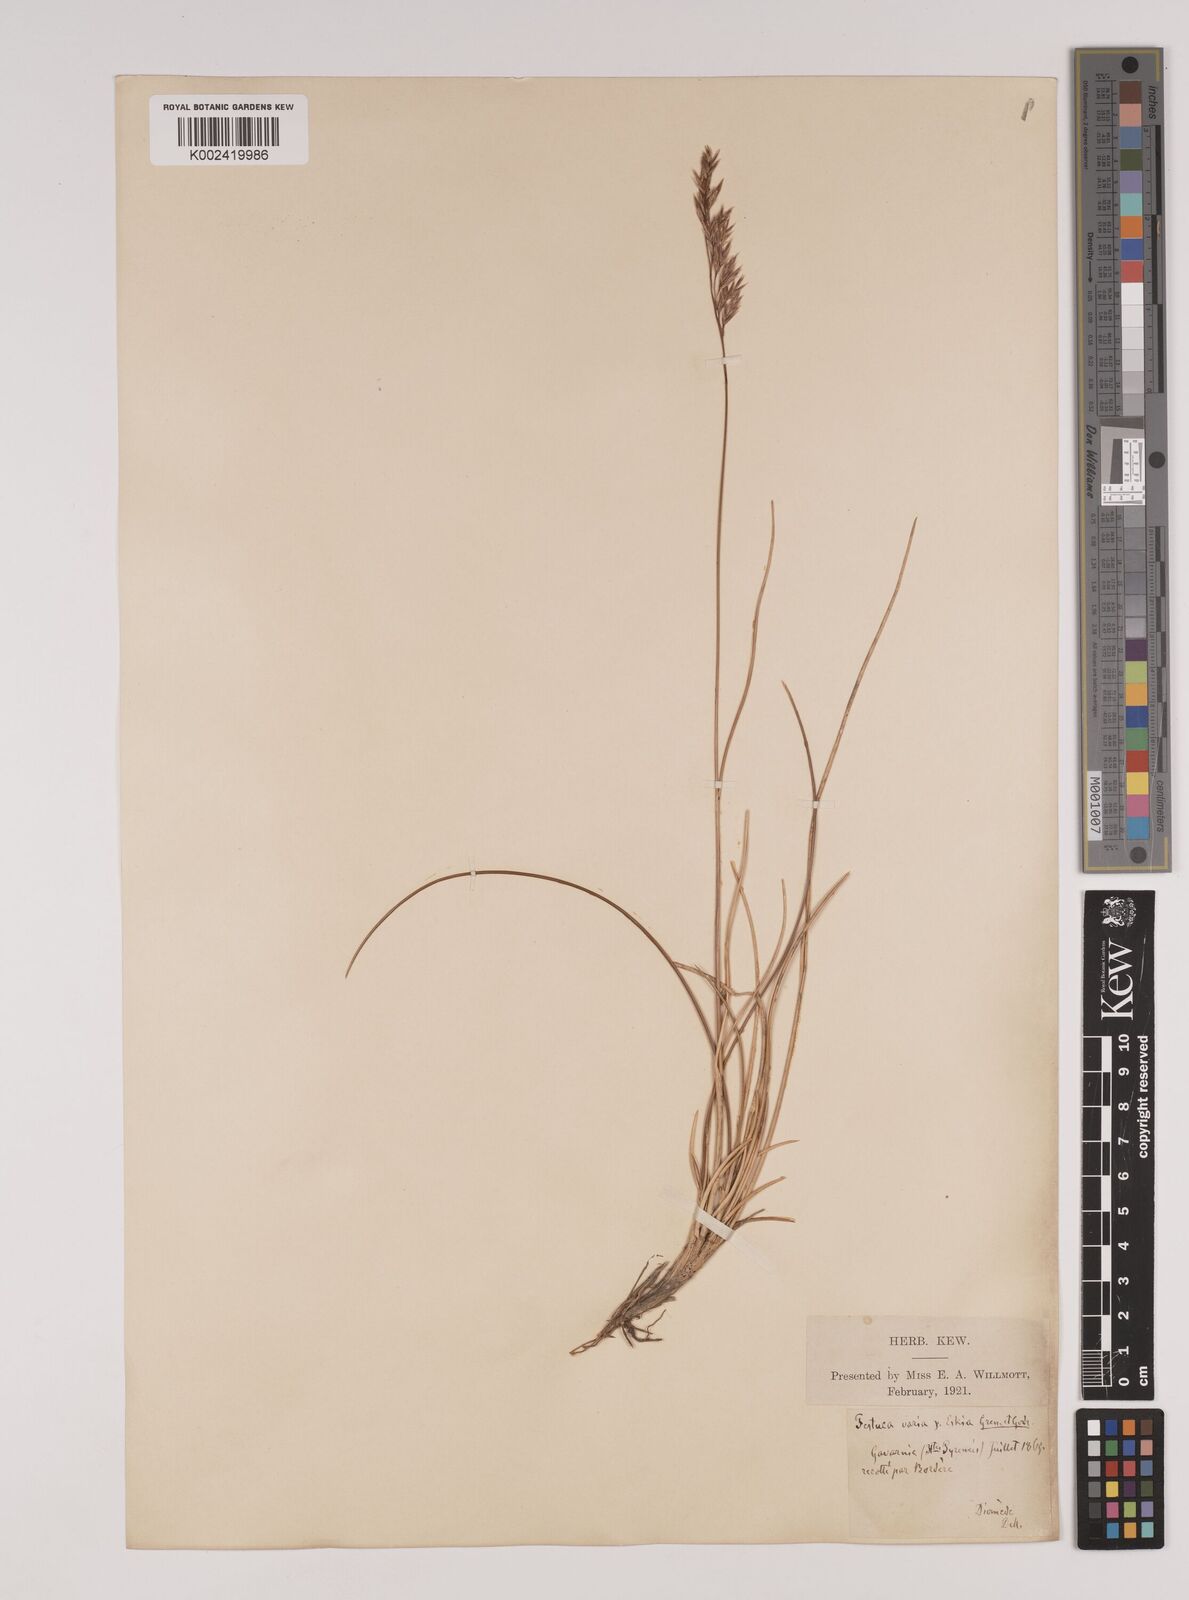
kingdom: Plantae
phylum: Tracheophyta
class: Liliopsida
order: Poales
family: Poaceae
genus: Festuca
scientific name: Festuca eskia
